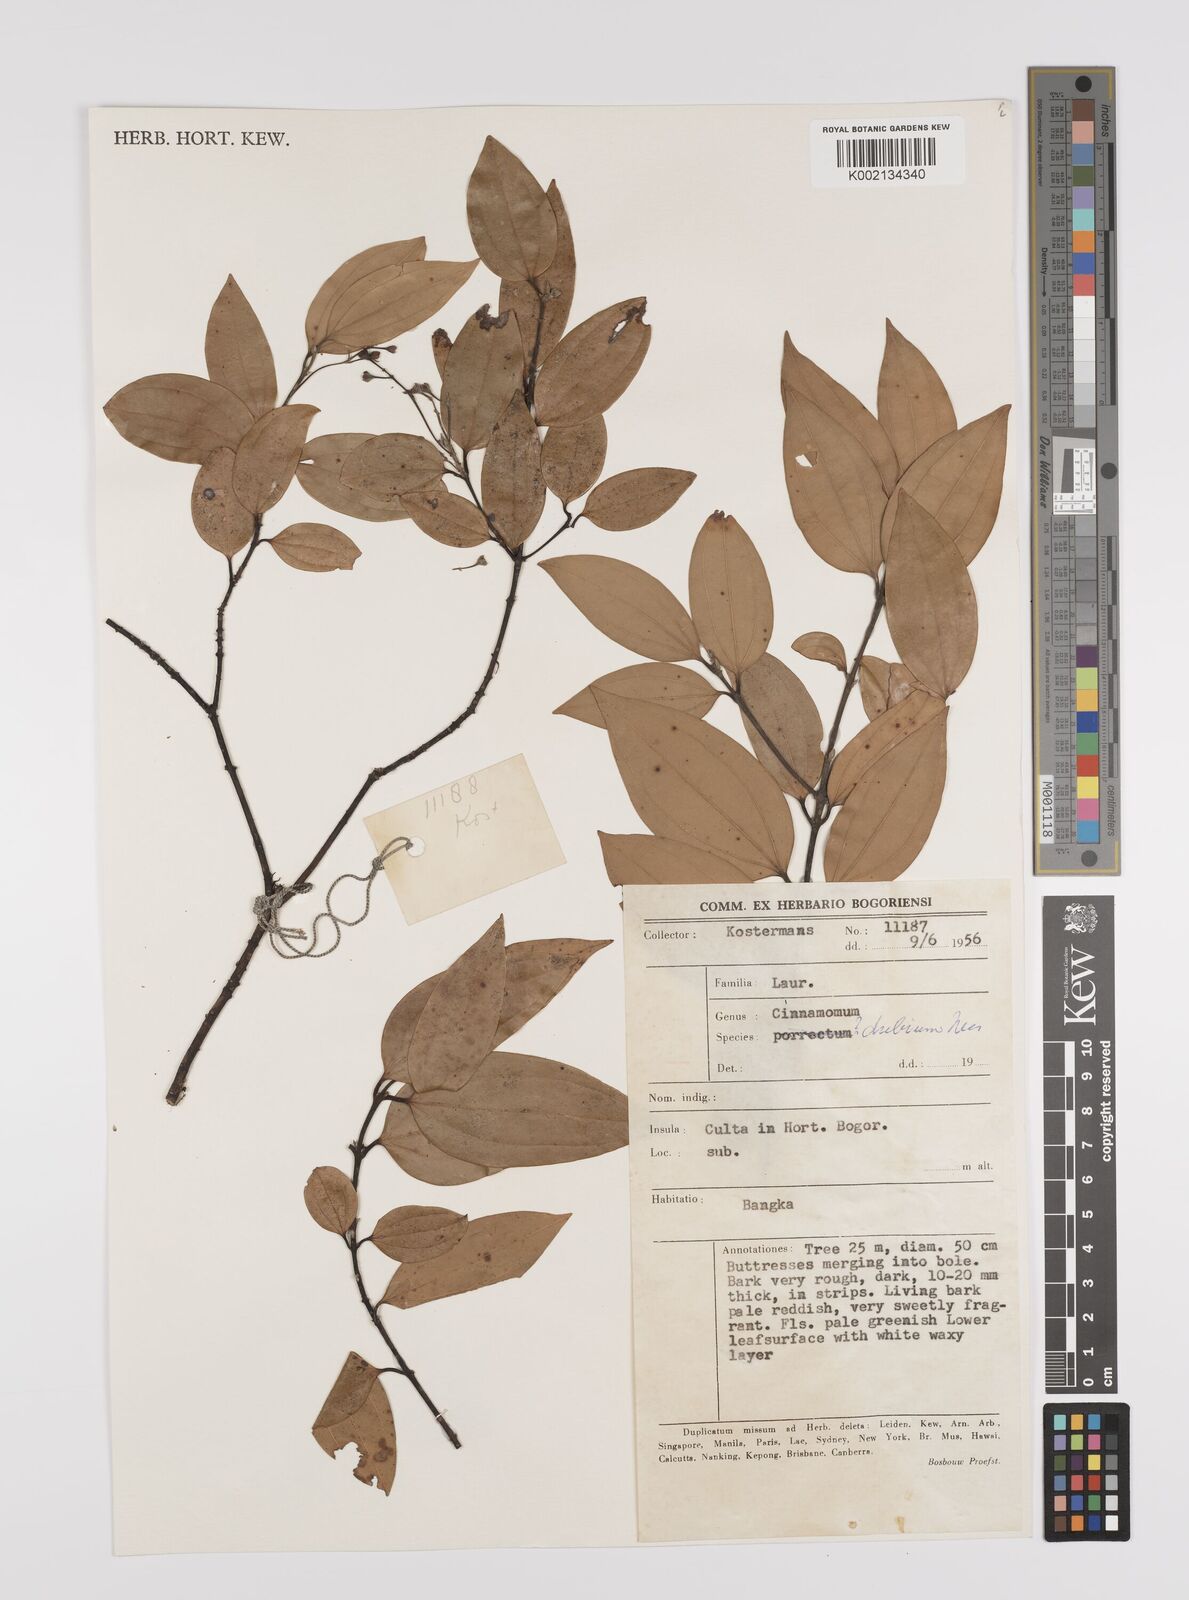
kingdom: Plantae
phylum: Tracheophyta
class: Magnoliopsida
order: Laurales
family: Lauraceae
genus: Cinnamomum
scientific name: Cinnamomum dubium
